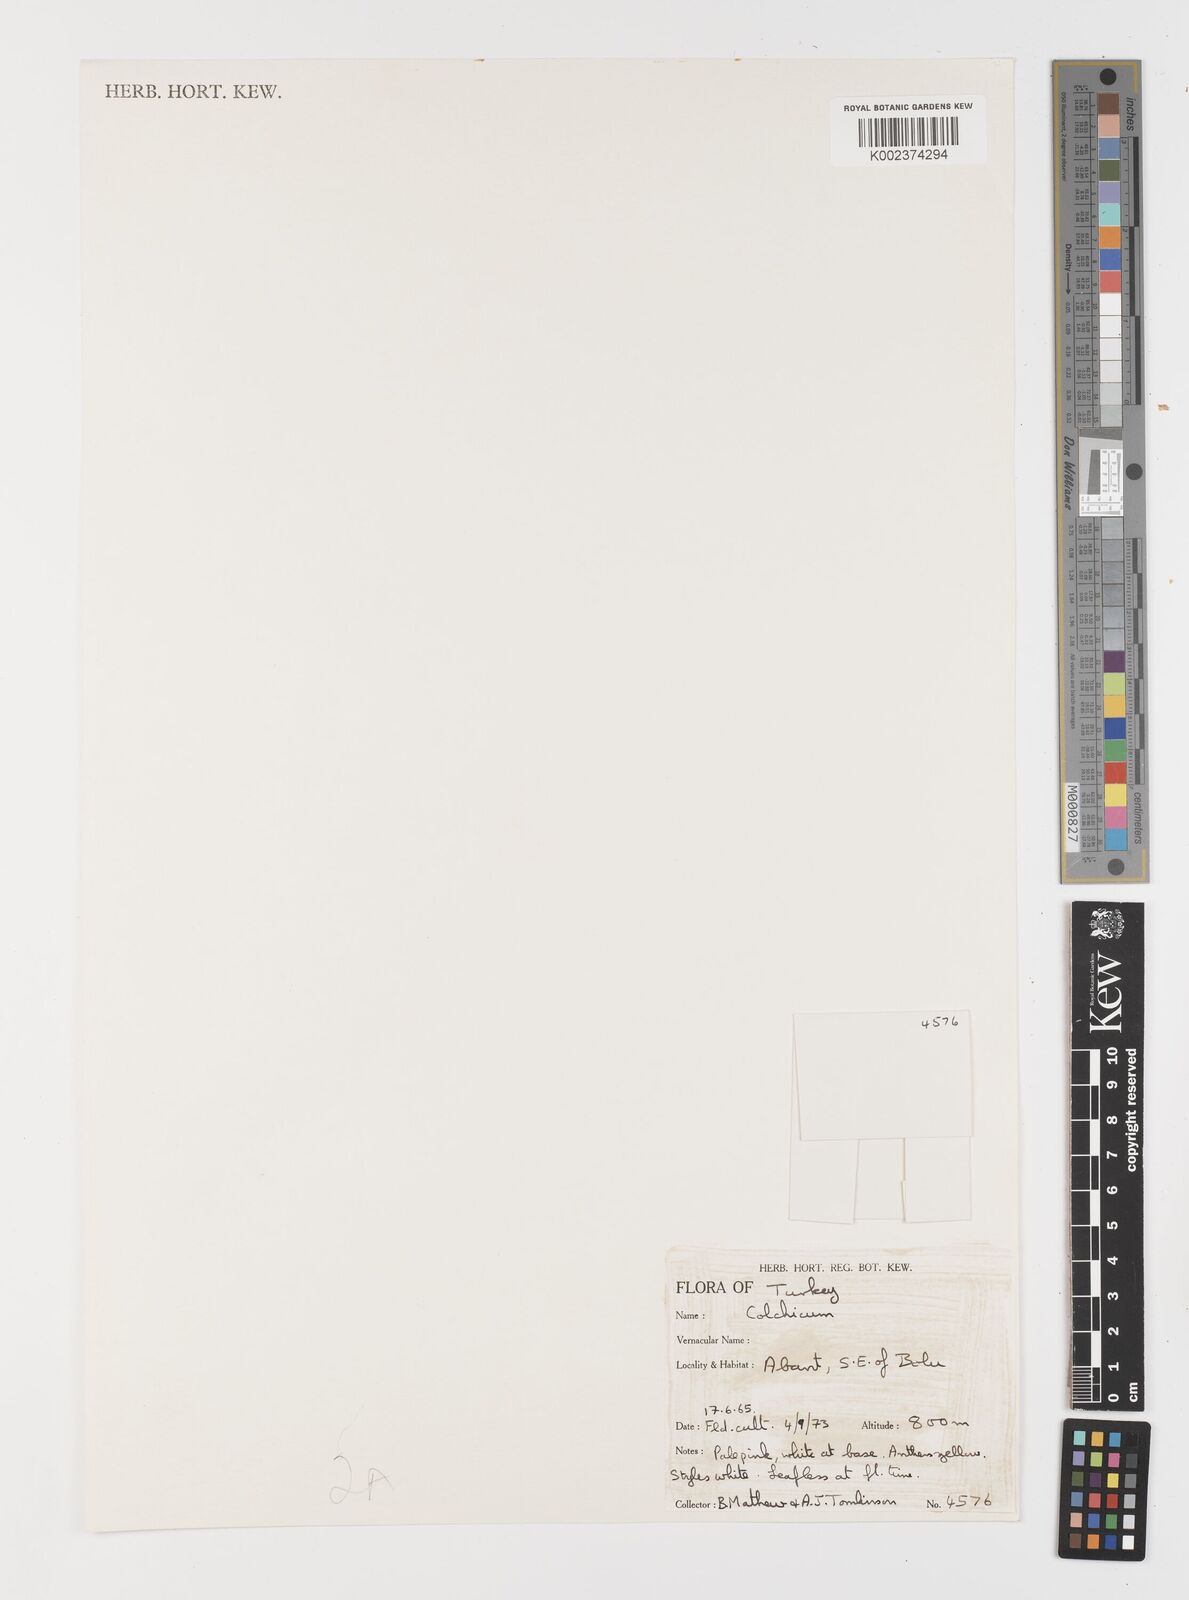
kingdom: Plantae
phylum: Tracheophyta
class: Liliopsida
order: Liliales
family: Colchicaceae
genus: Colchicum
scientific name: Colchicum
